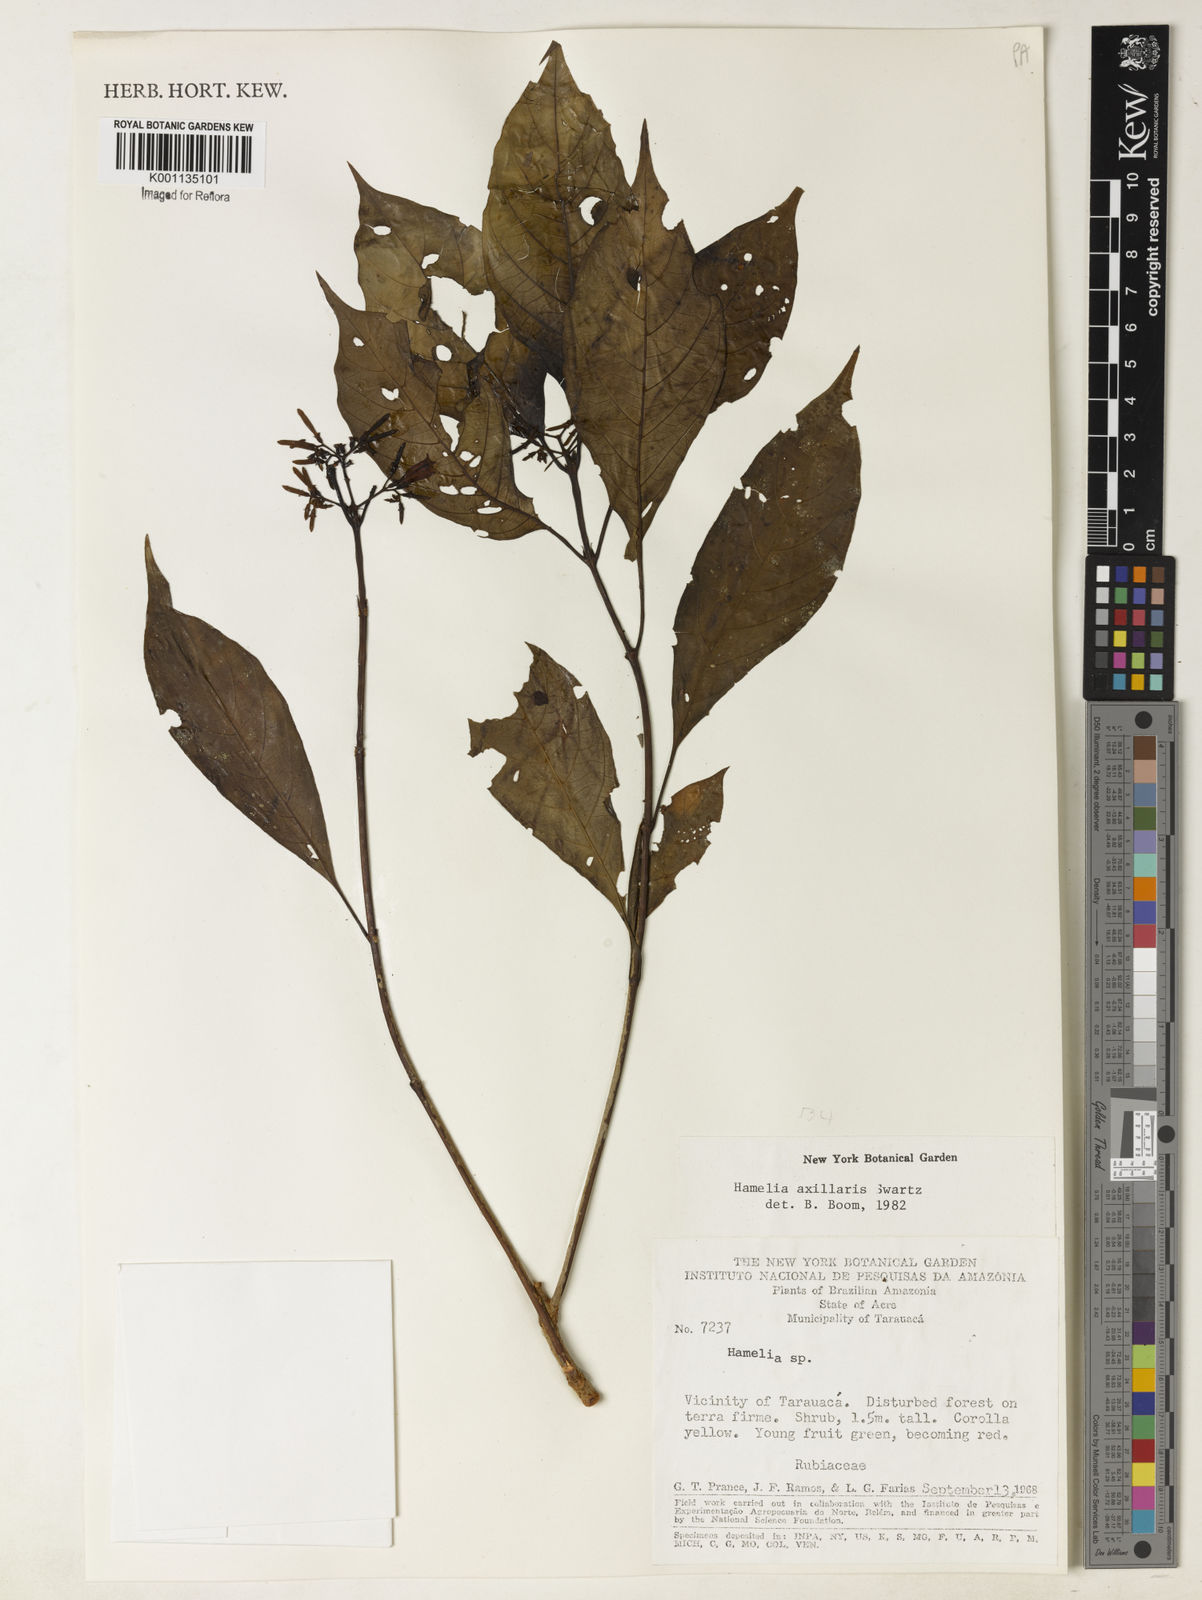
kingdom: Plantae
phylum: Tracheophyta
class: Magnoliopsida
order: Gentianales
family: Rubiaceae
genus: Hamelia
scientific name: Hamelia axillaris
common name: Balsamillo
